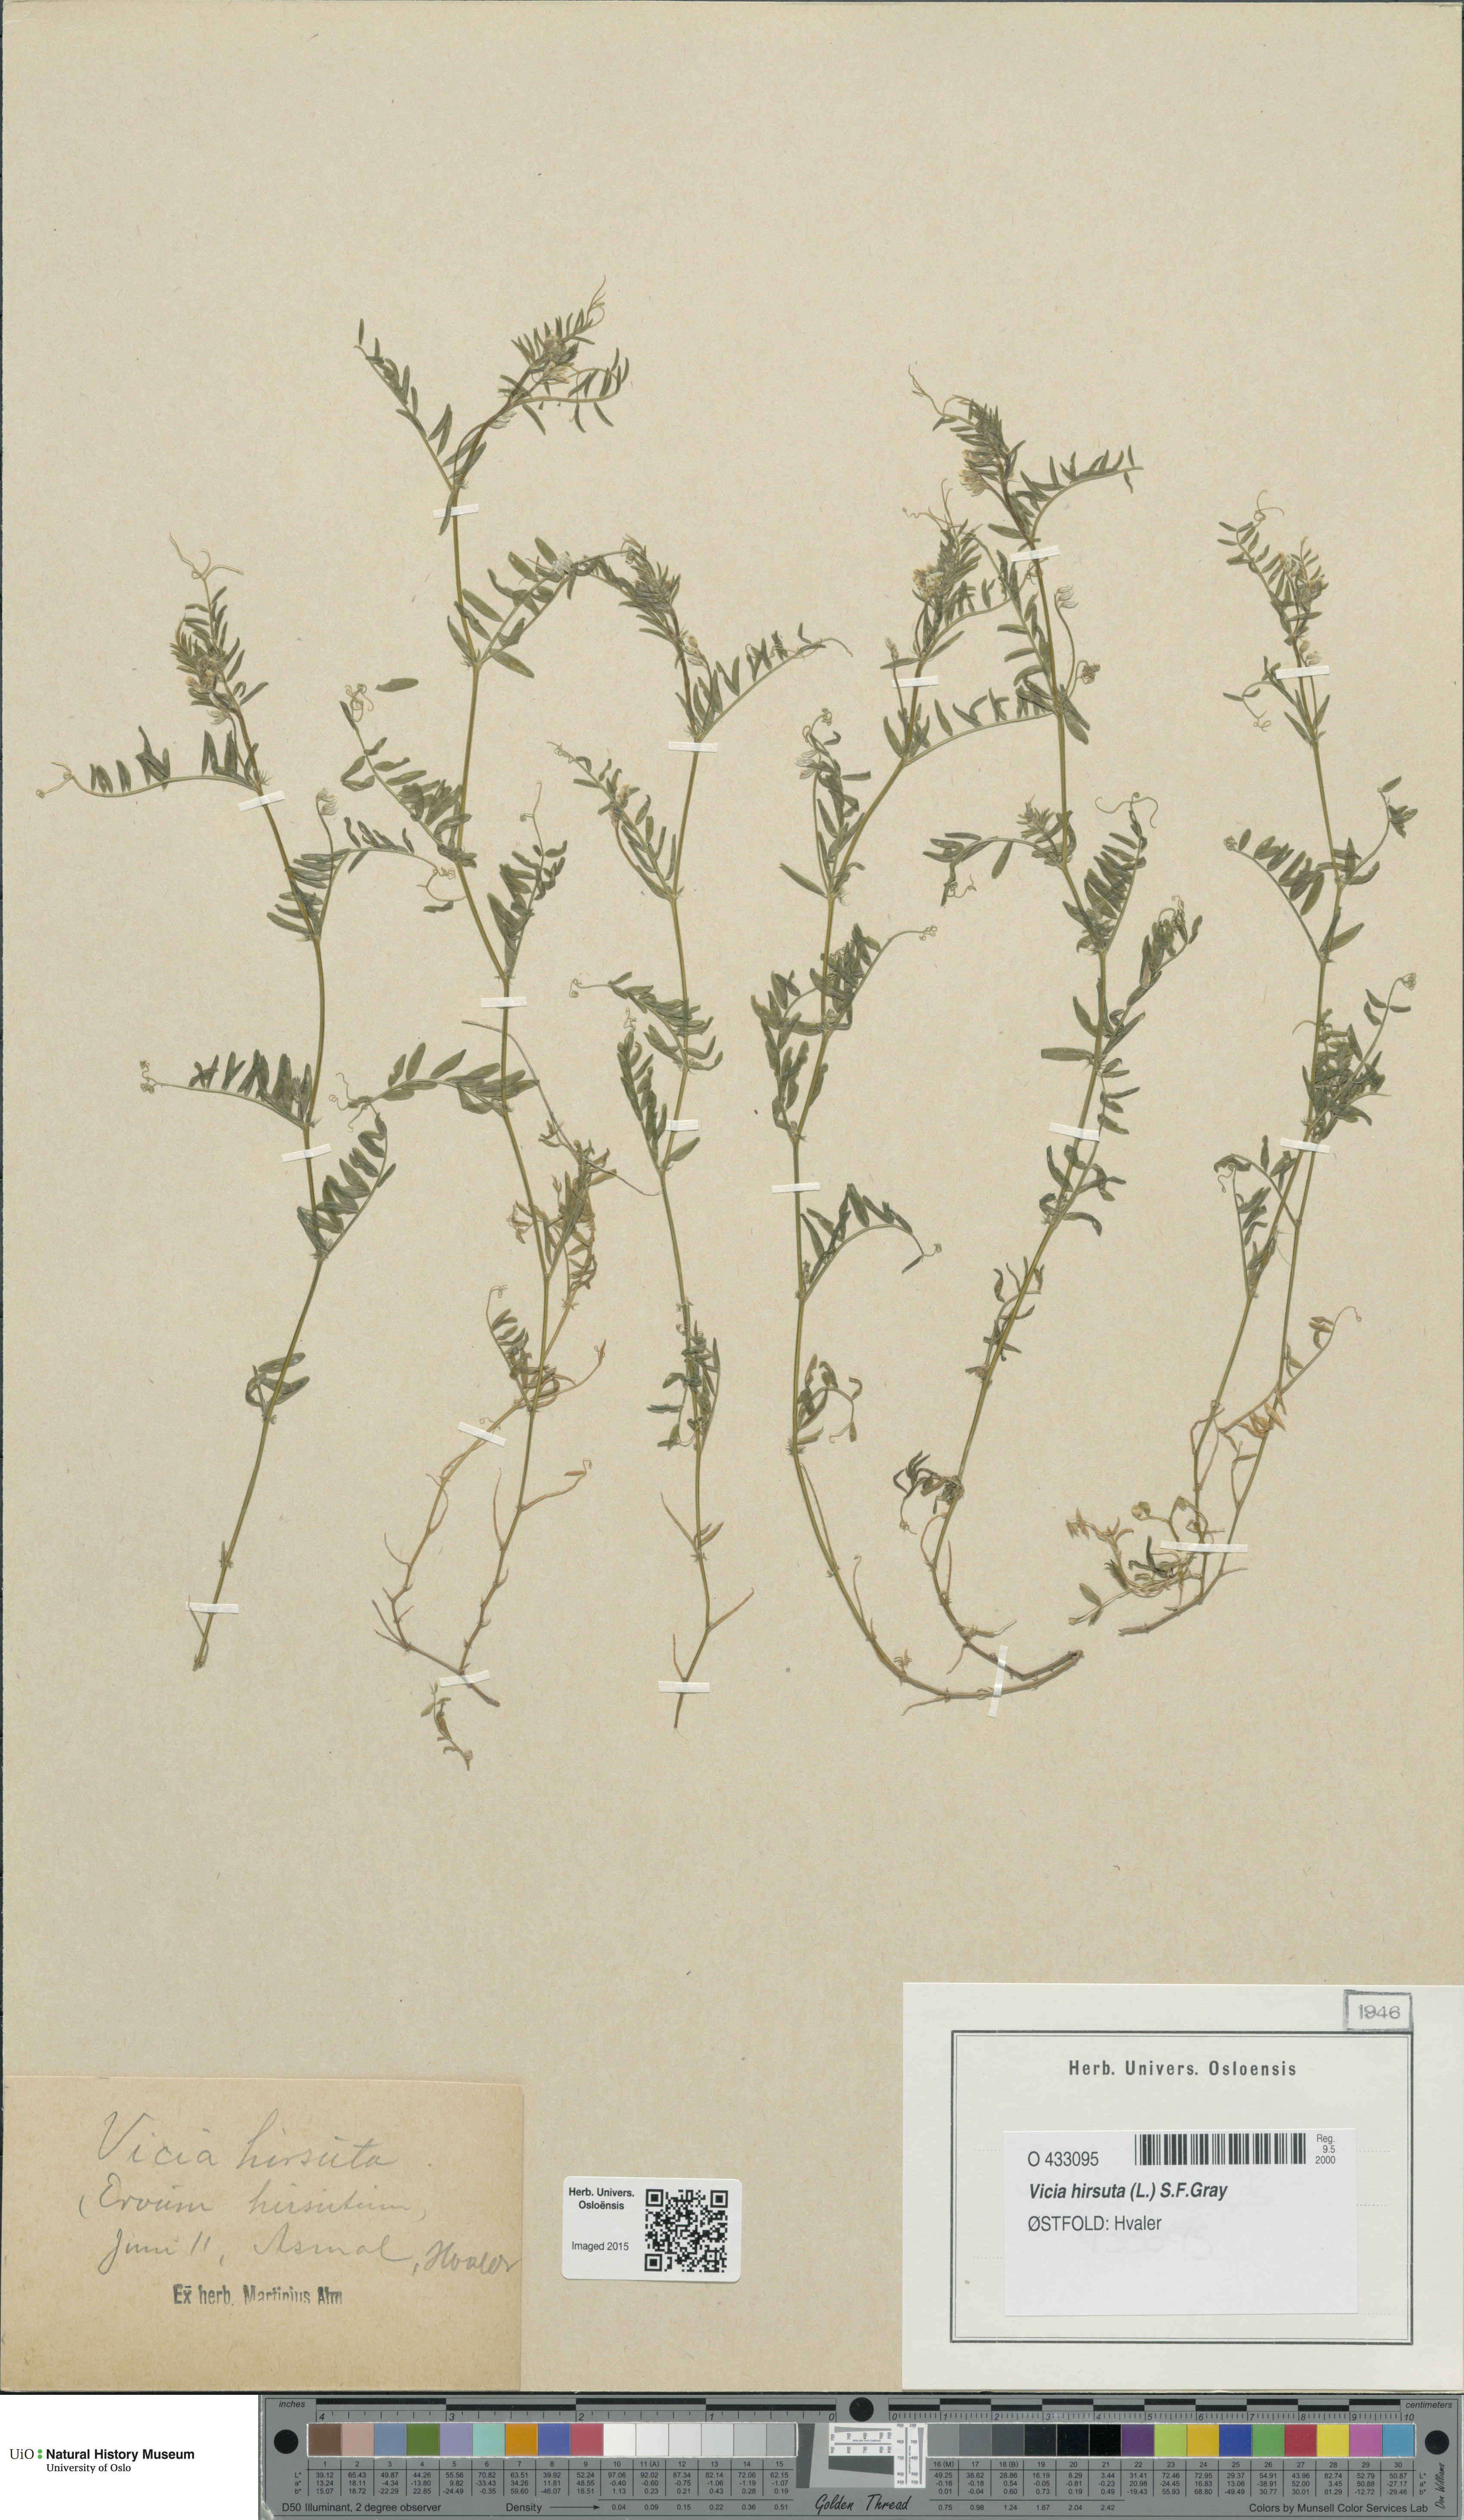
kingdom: Plantae
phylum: Tracheophyta
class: Magnoliopsida
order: Fabales
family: Fabaceae
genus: Vicia
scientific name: Vicia hirsuta
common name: Tiny vetch
